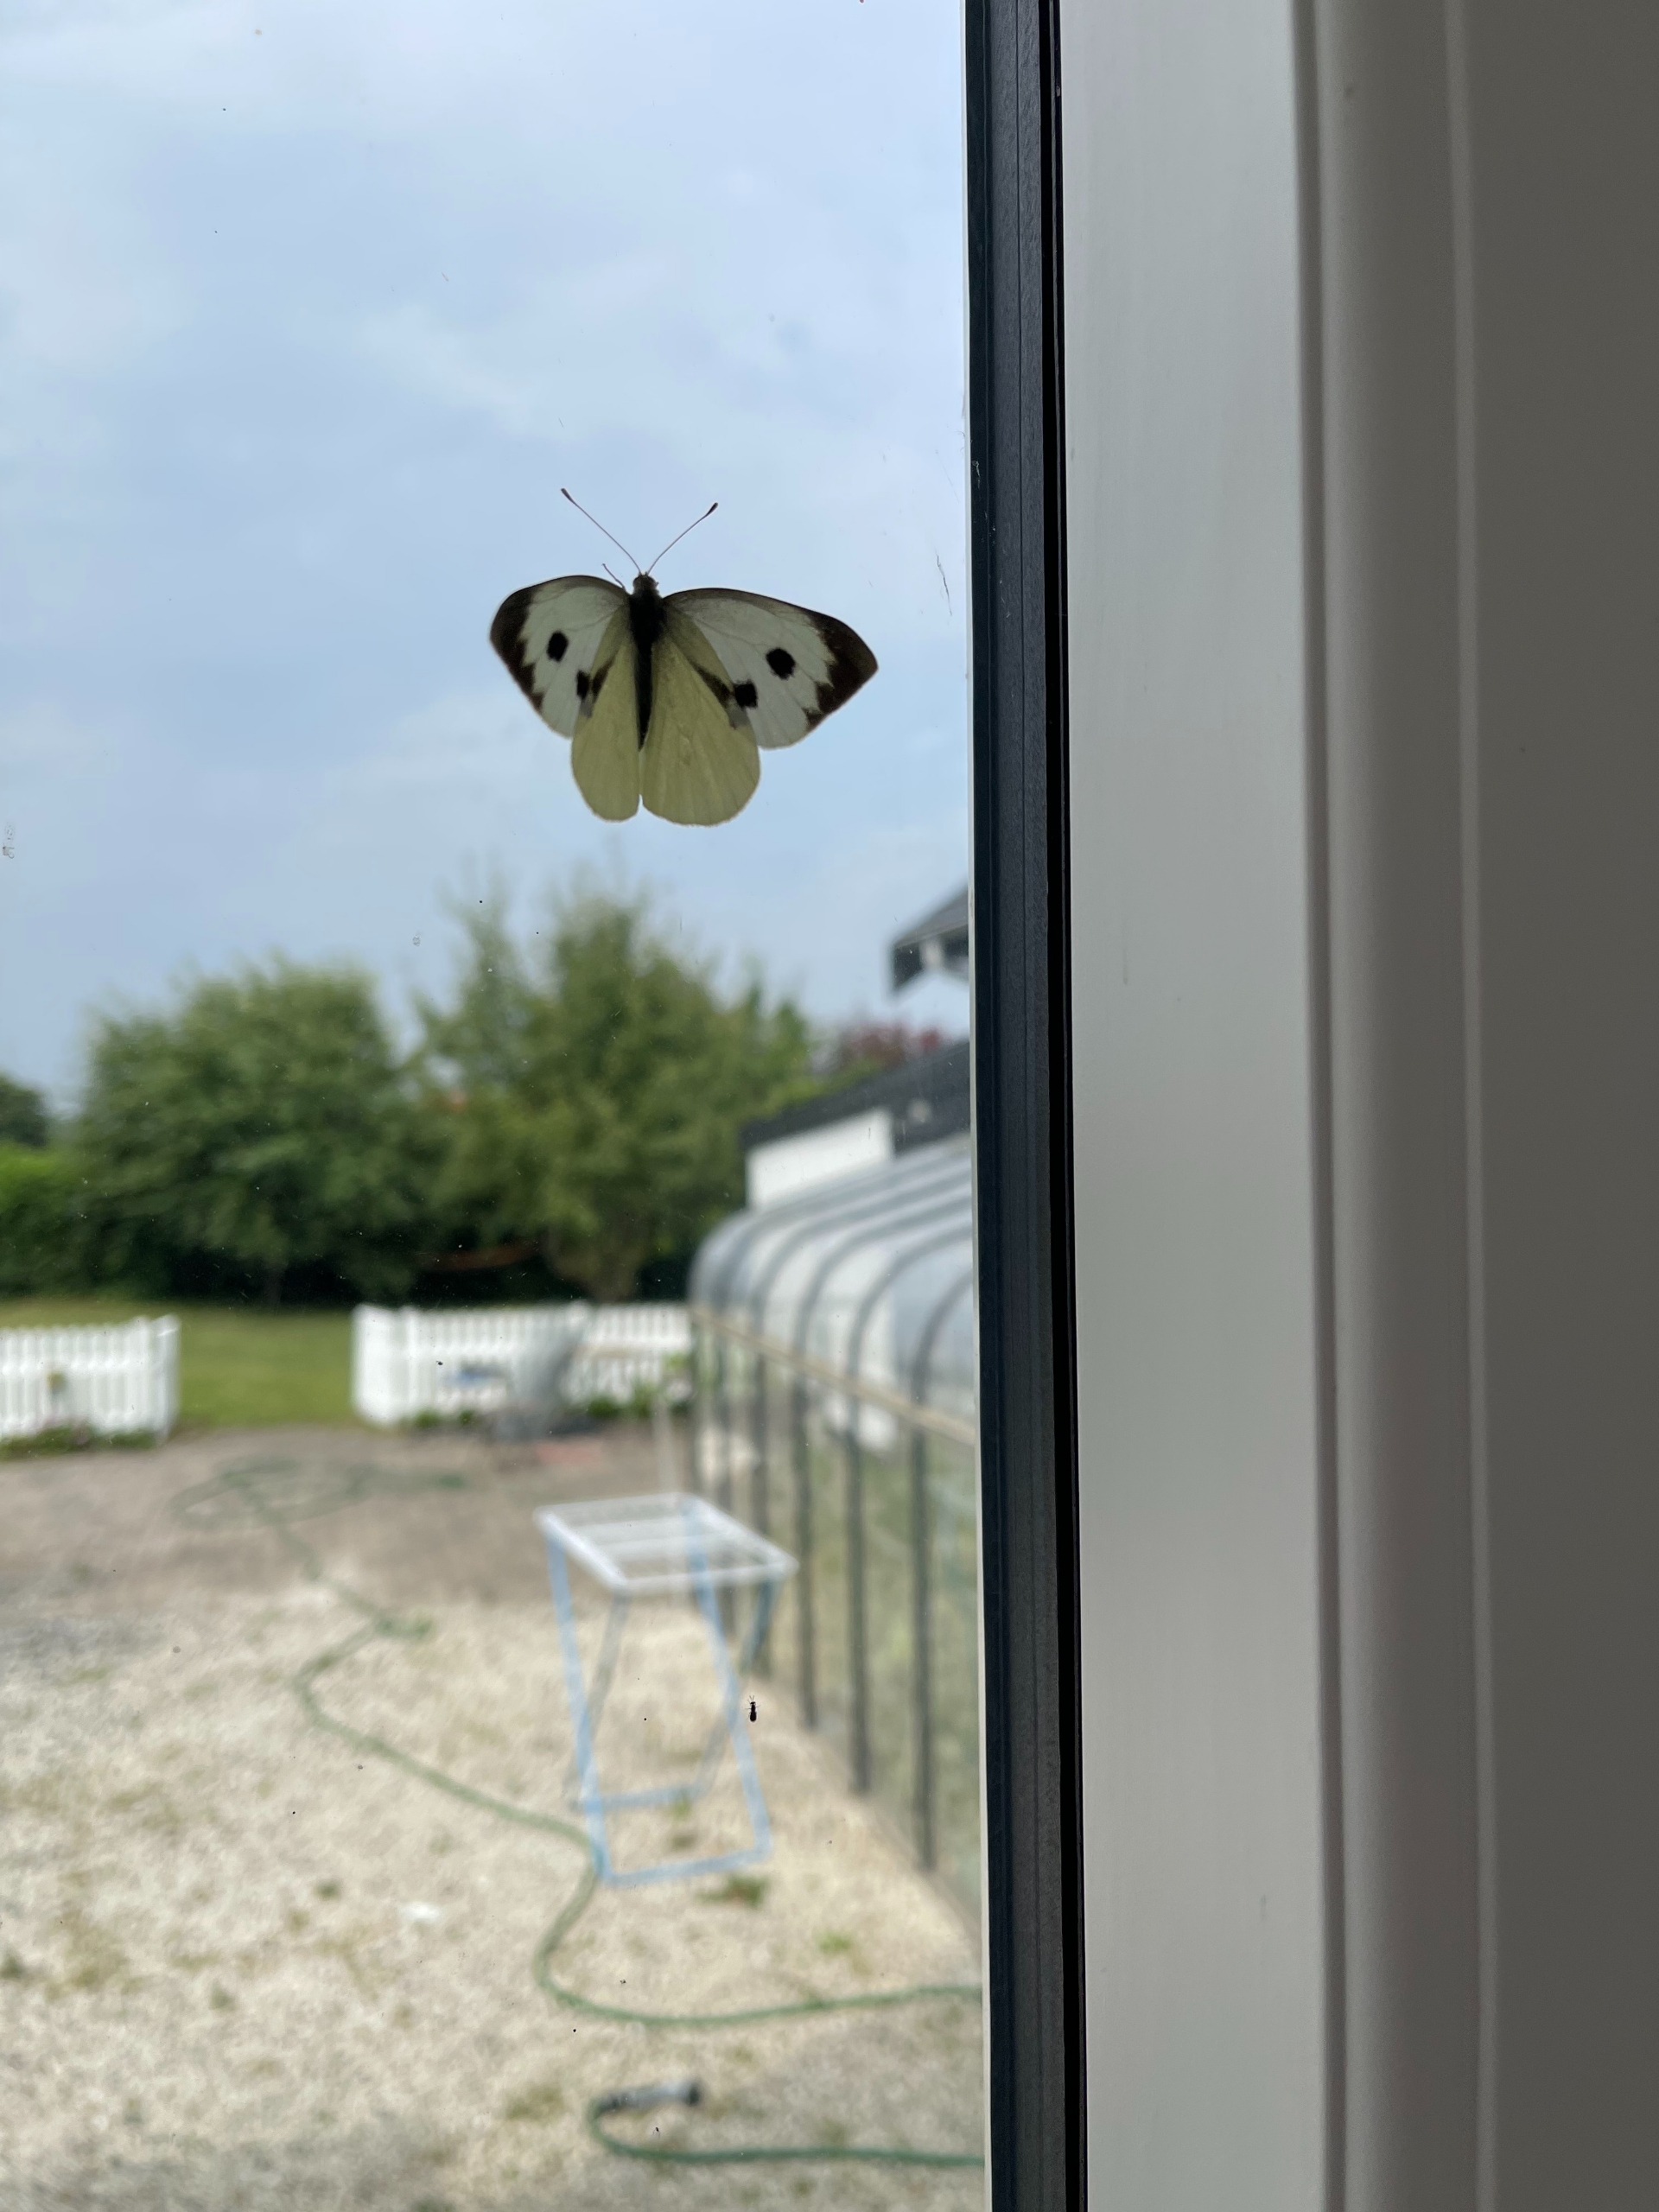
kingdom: Animalia
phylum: Arthropoda
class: Insecta
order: Lepidoptera
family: Pieridae
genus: Pieris
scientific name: Pieris brassicae
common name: Stor kålsommerfugl
